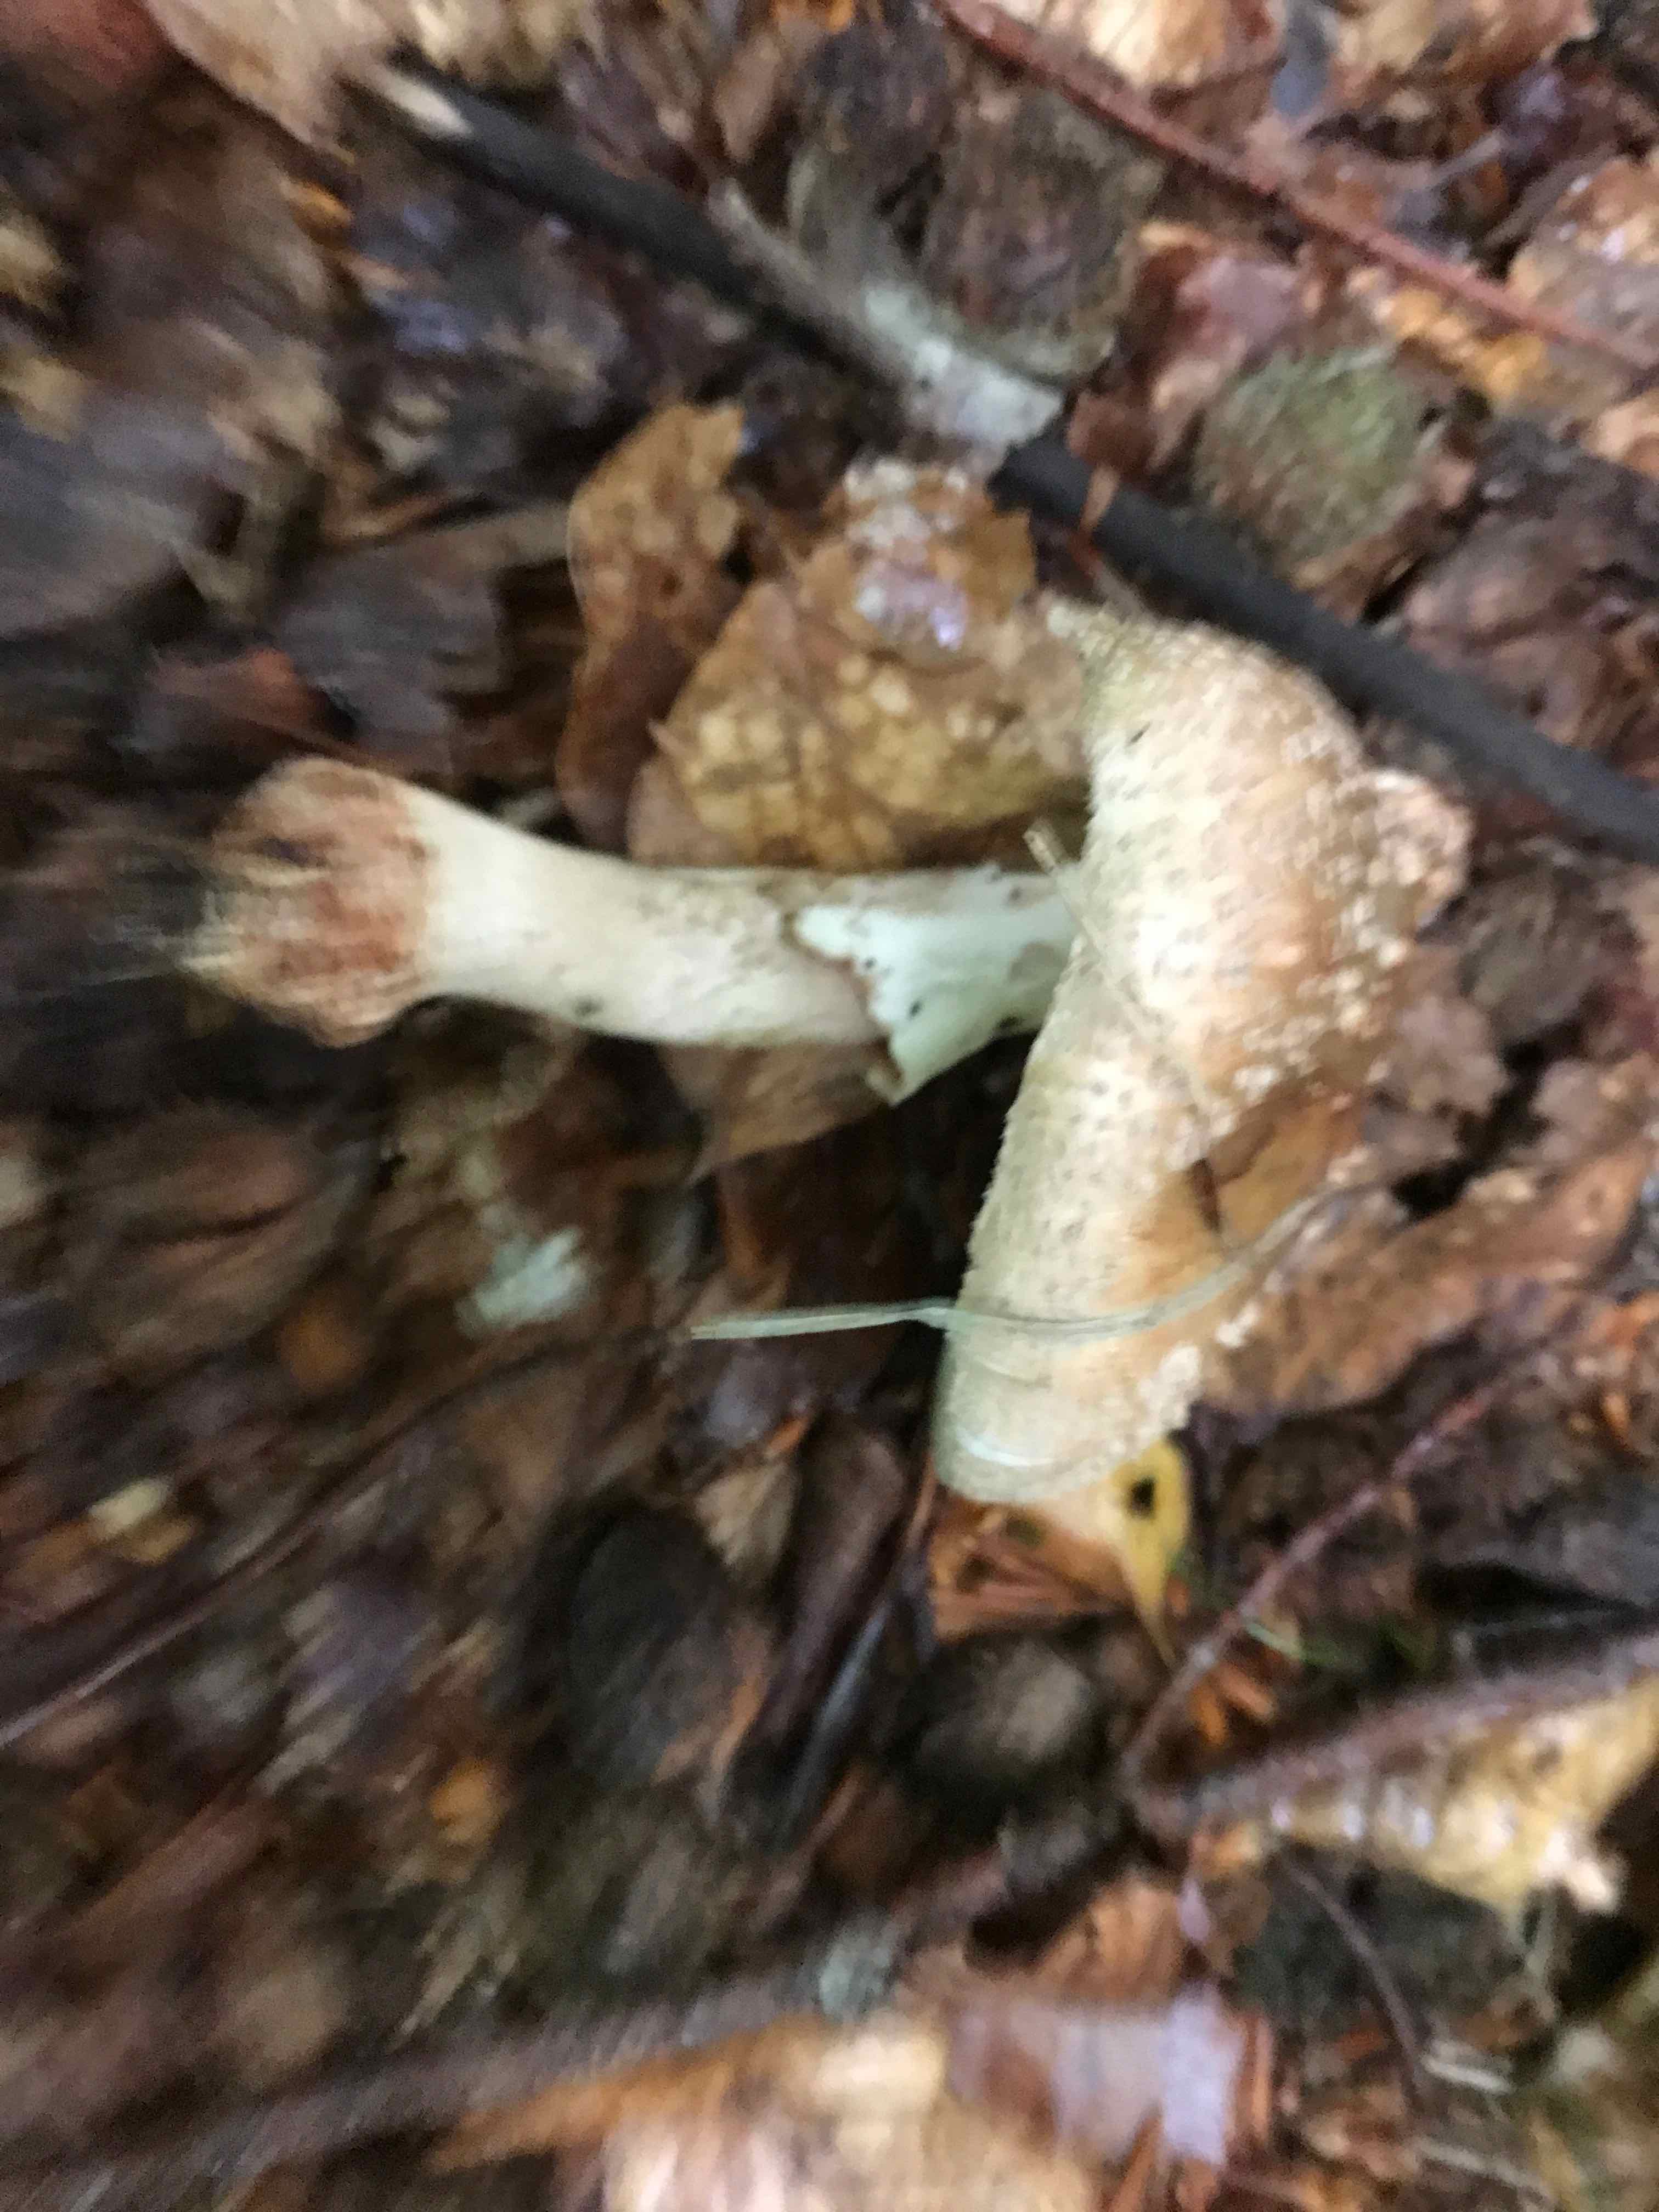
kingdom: Fungi
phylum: Basidiomycota
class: Agaricomycetes
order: Agaricales
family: Amanitaceae
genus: Amanita
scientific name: Amanita rubescens
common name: rødmende fluesvamp
